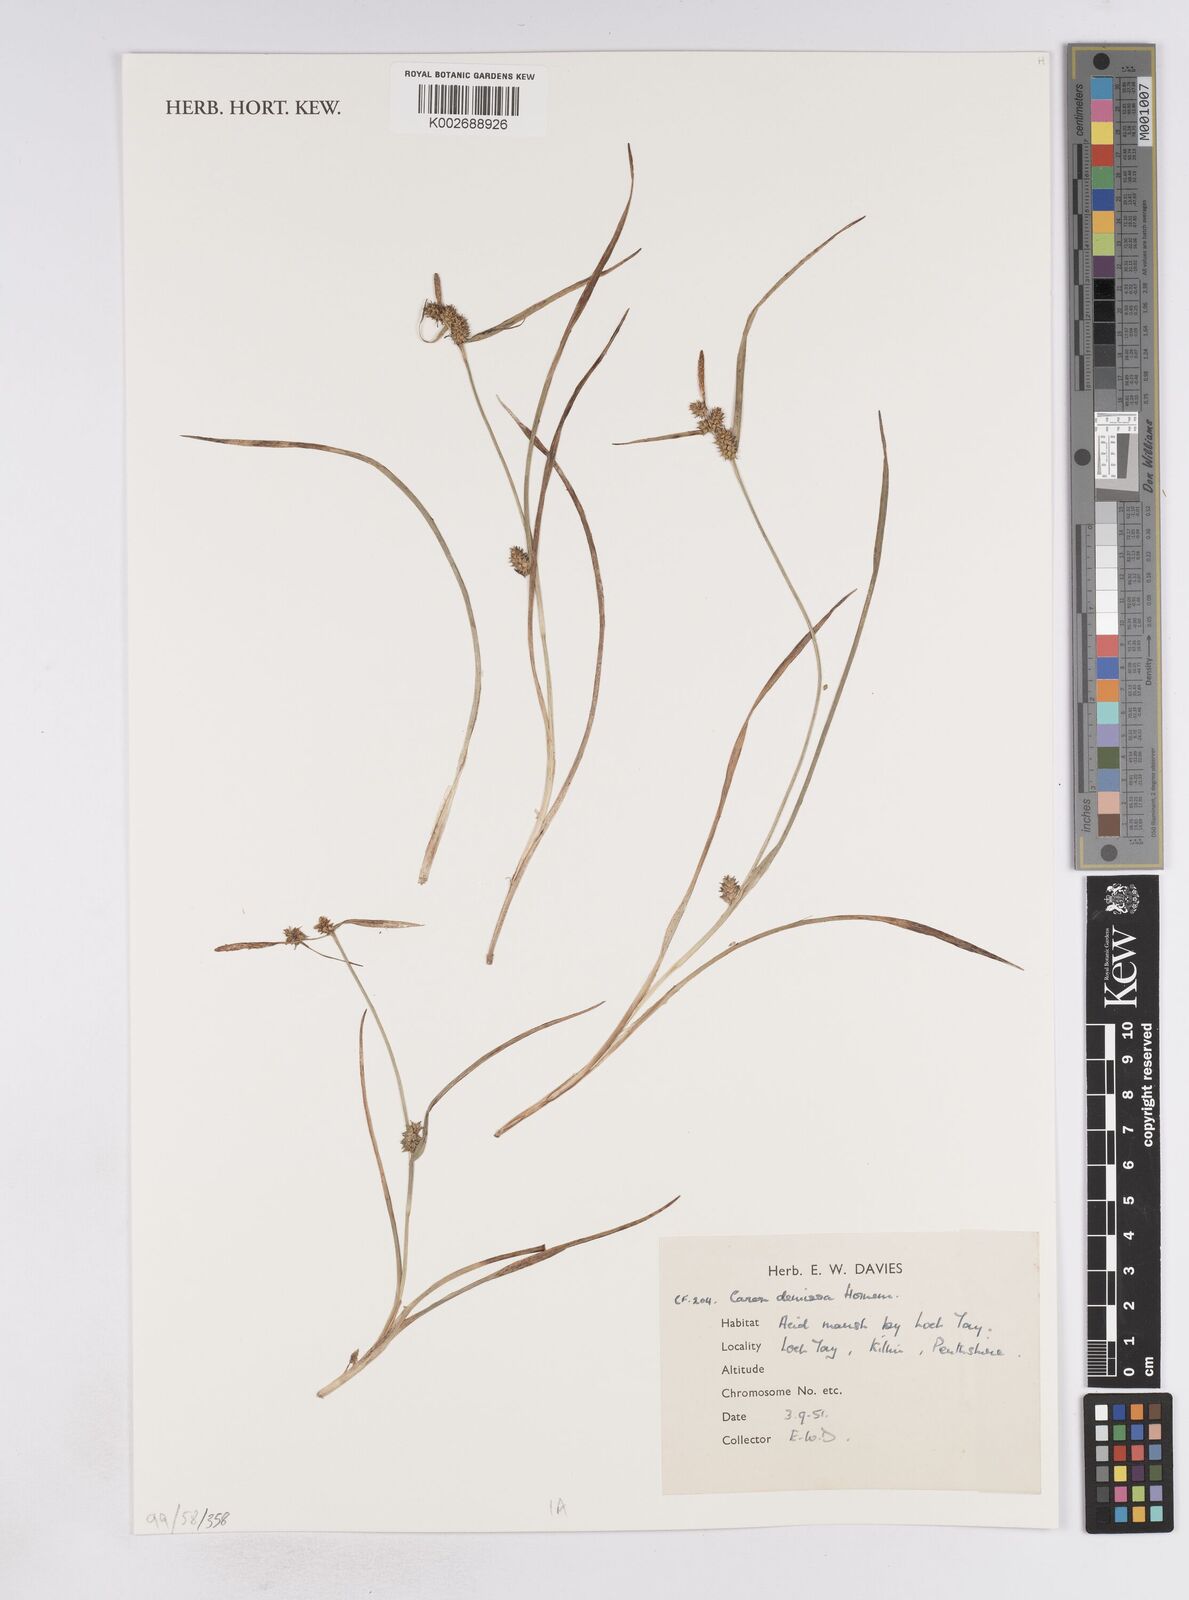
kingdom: Plantae
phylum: Tracheophyta
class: Liliopsida
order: Poales
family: Cyperaceae
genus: Carex
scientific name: Carex demissa
